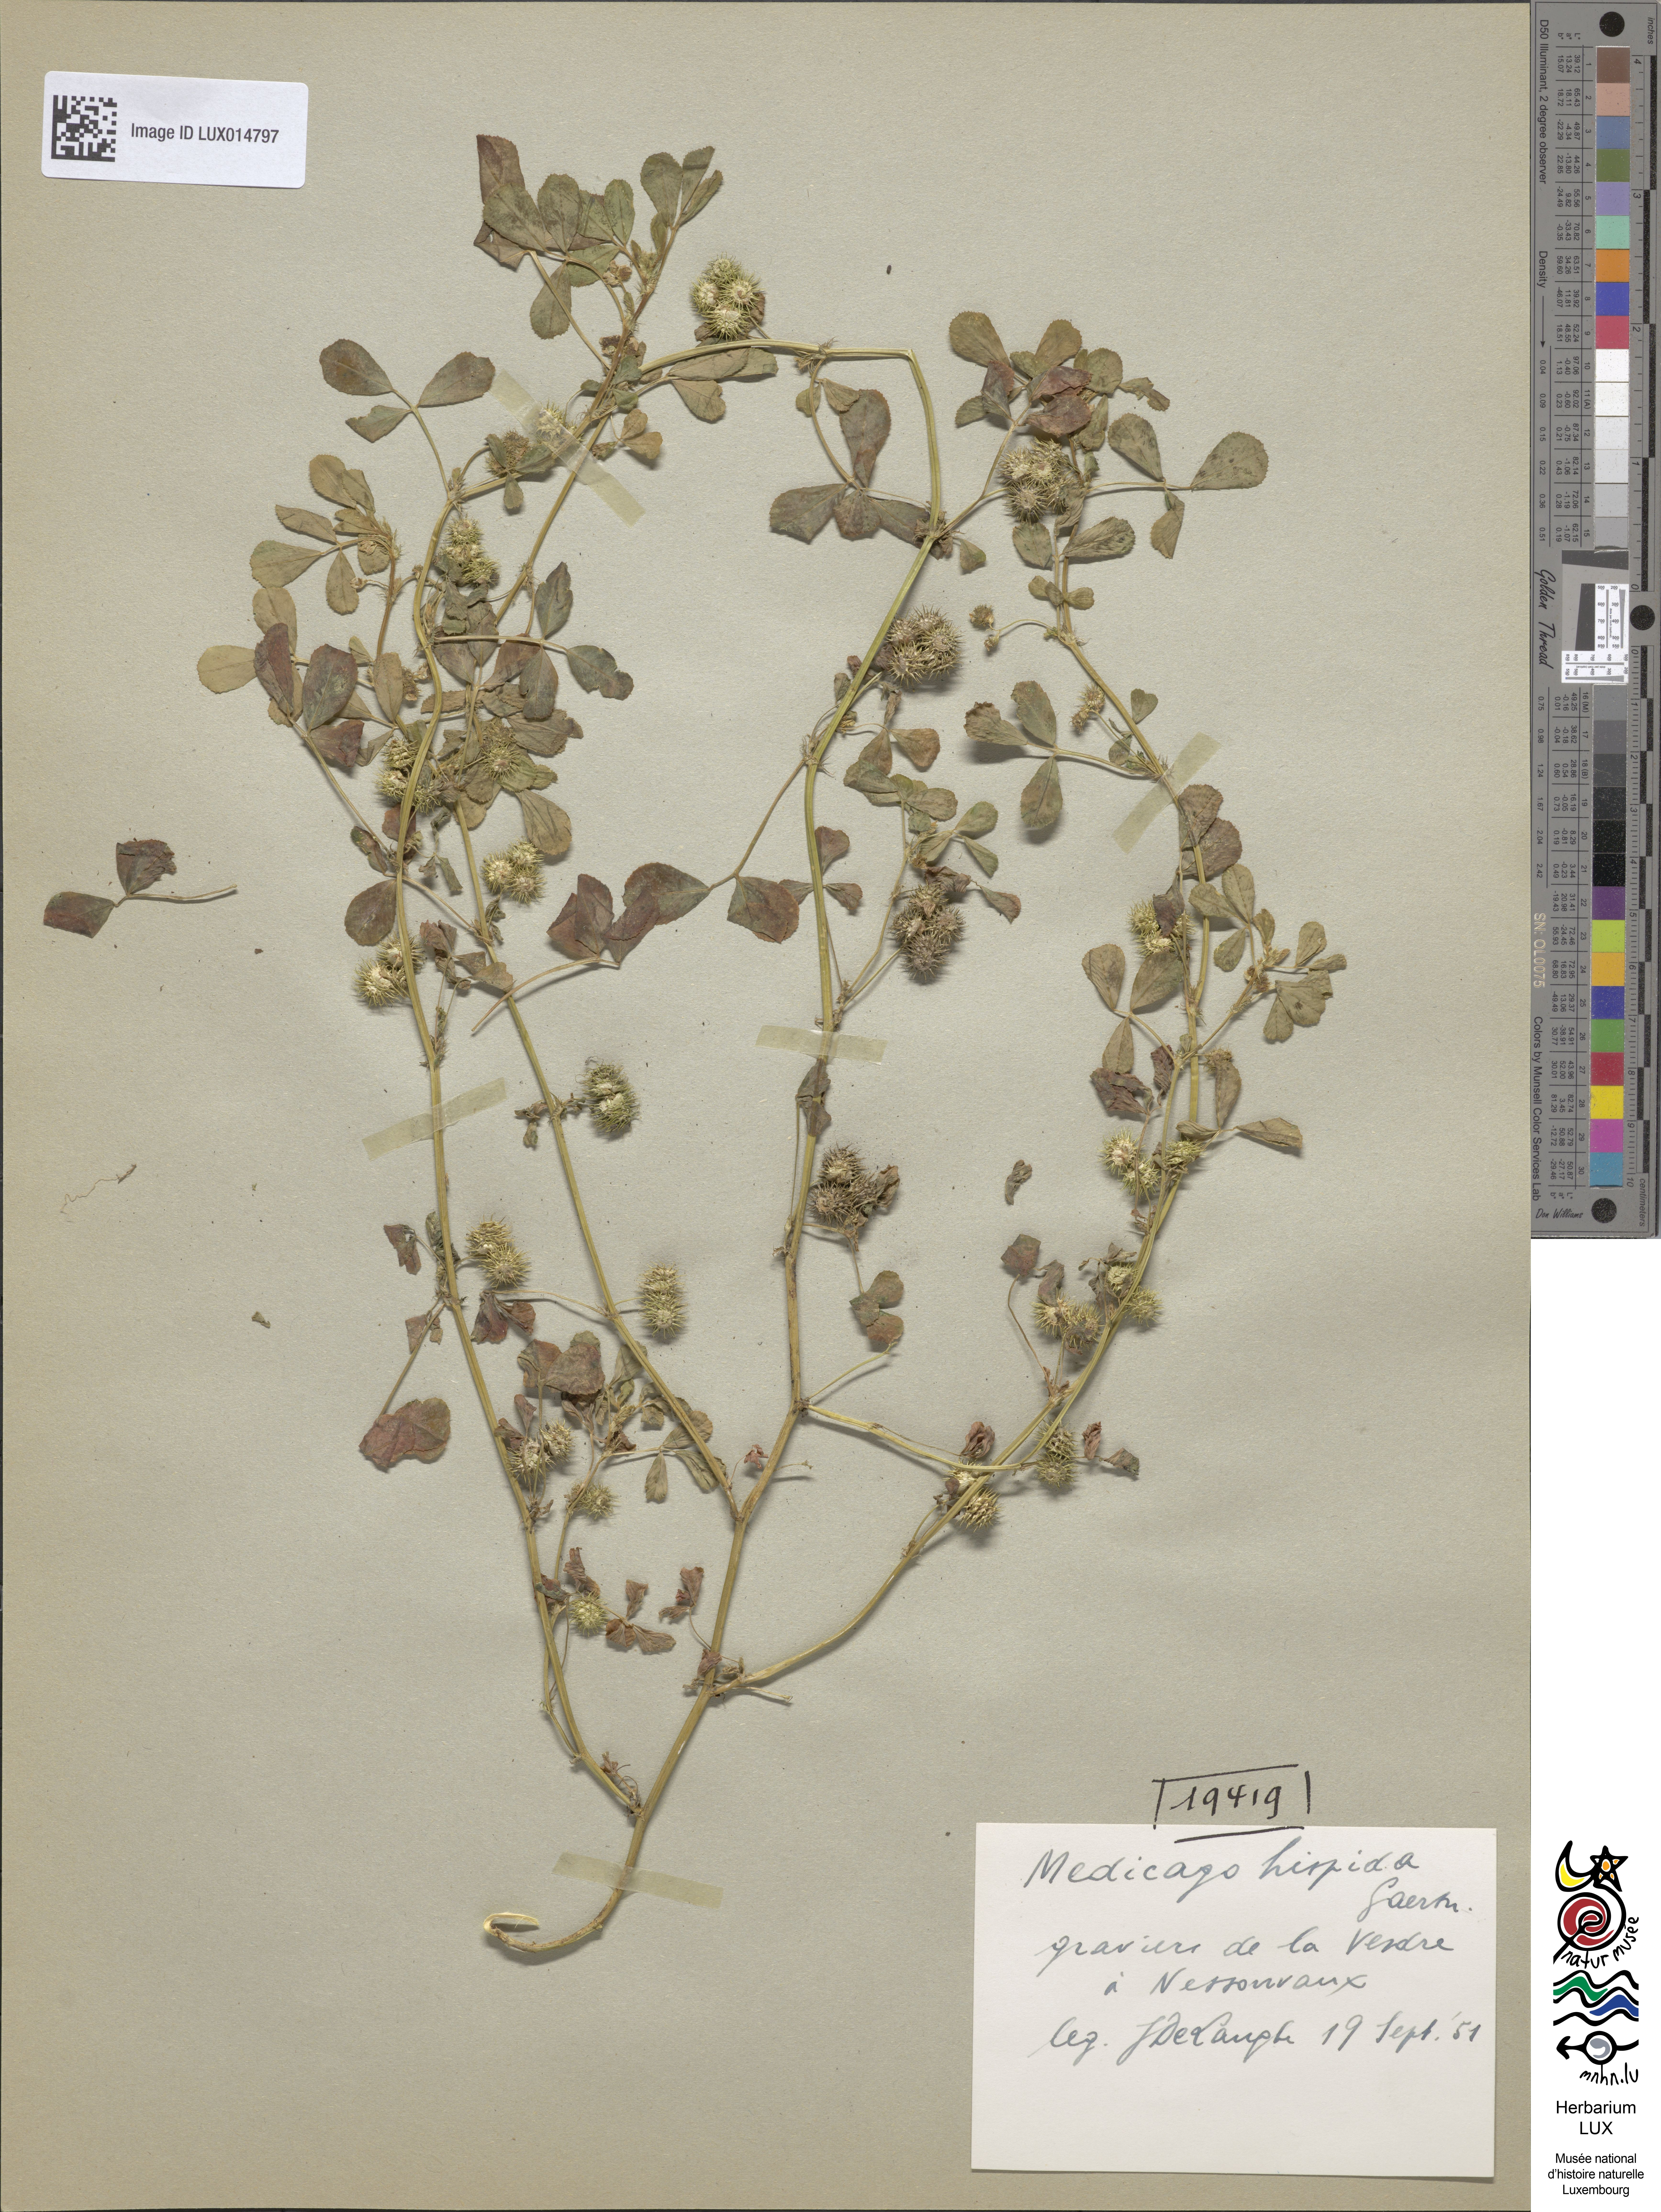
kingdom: Plantae
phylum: Tracheophyta
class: Magnoliopsida
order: Fabales
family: Fabaceae
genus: Medicago
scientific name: Medicago polymorpha
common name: Burclover
